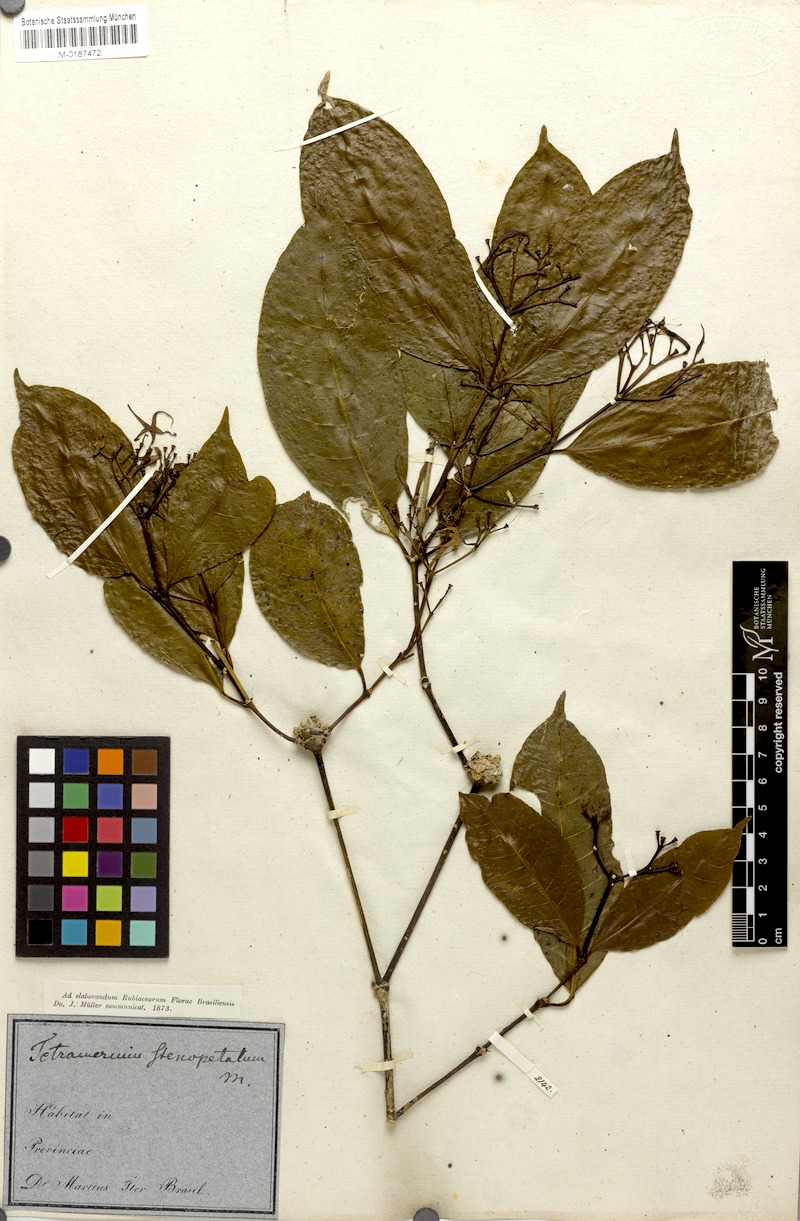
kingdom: Plantae
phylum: Tracheophyta
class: Magnoliopsida
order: Gentianales
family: Rubiaceae
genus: Faramea
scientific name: Faramea stenopetala
